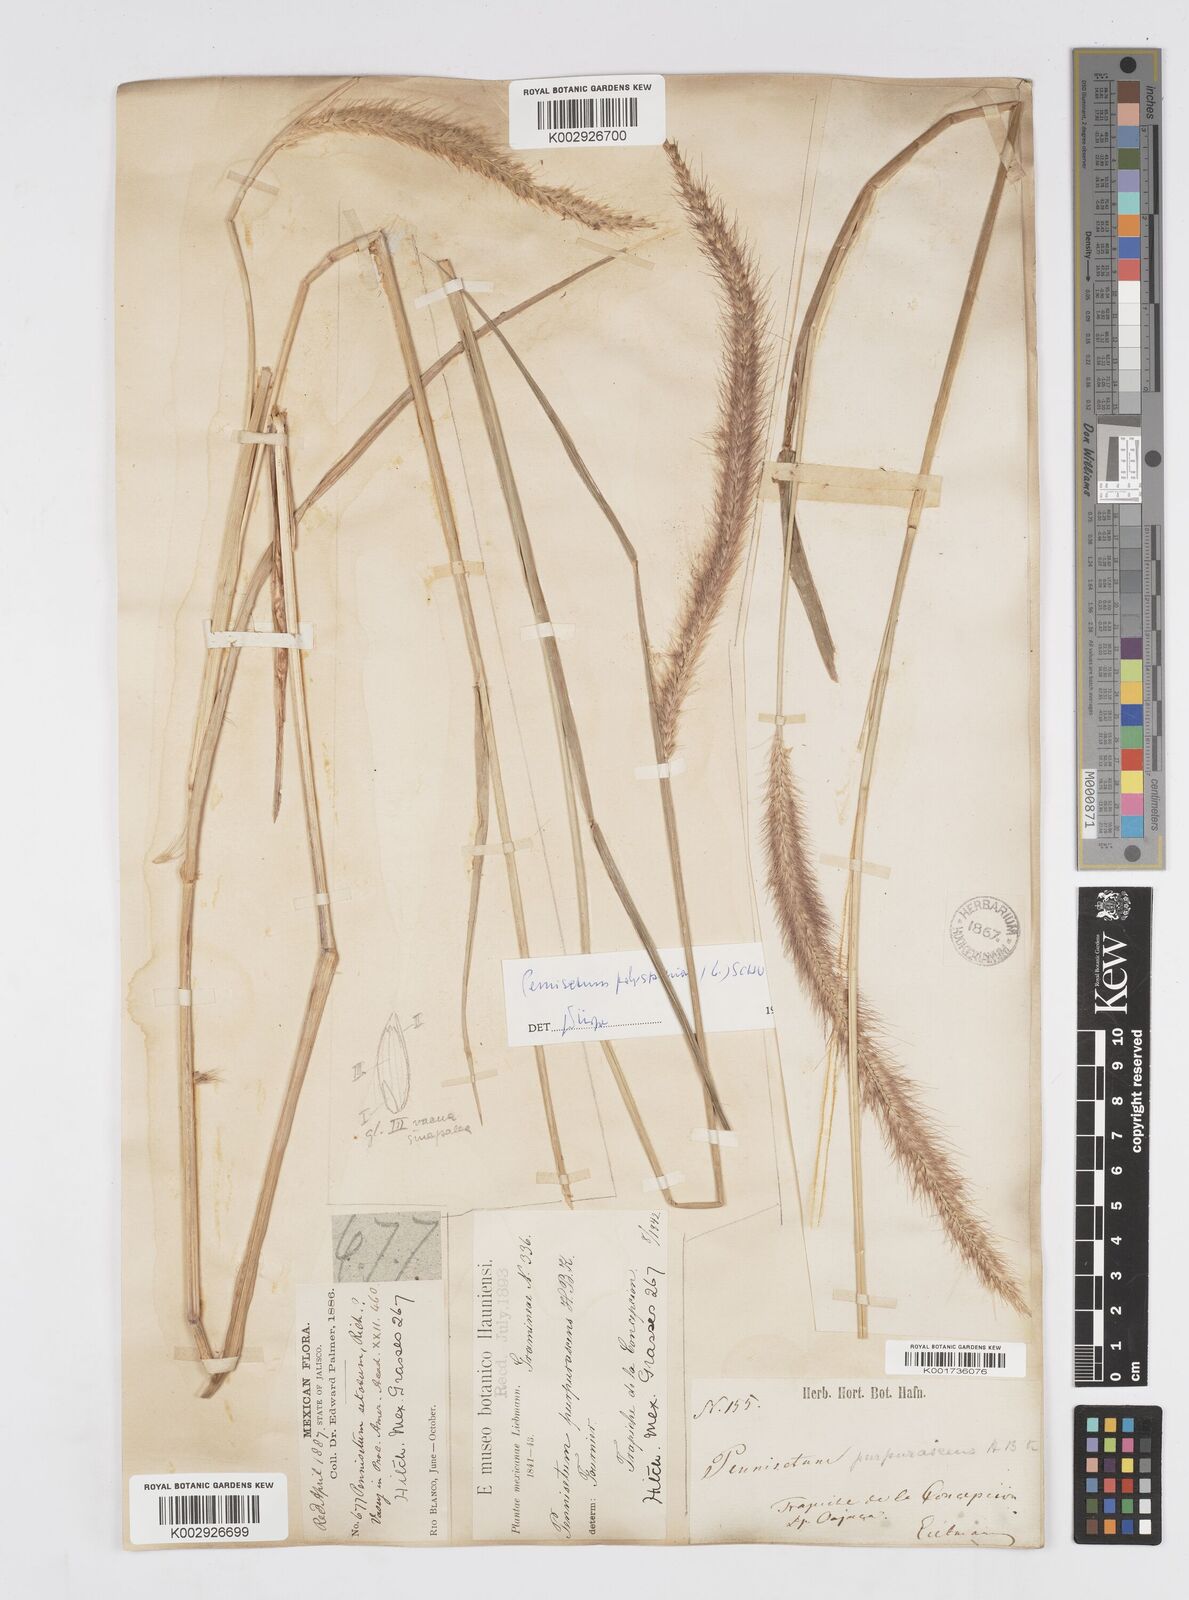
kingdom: Plantae
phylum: Tracheophyta
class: Liliopsida
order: Poales
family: Poaceae
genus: Cenchrus
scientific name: Cenchrus setosus
